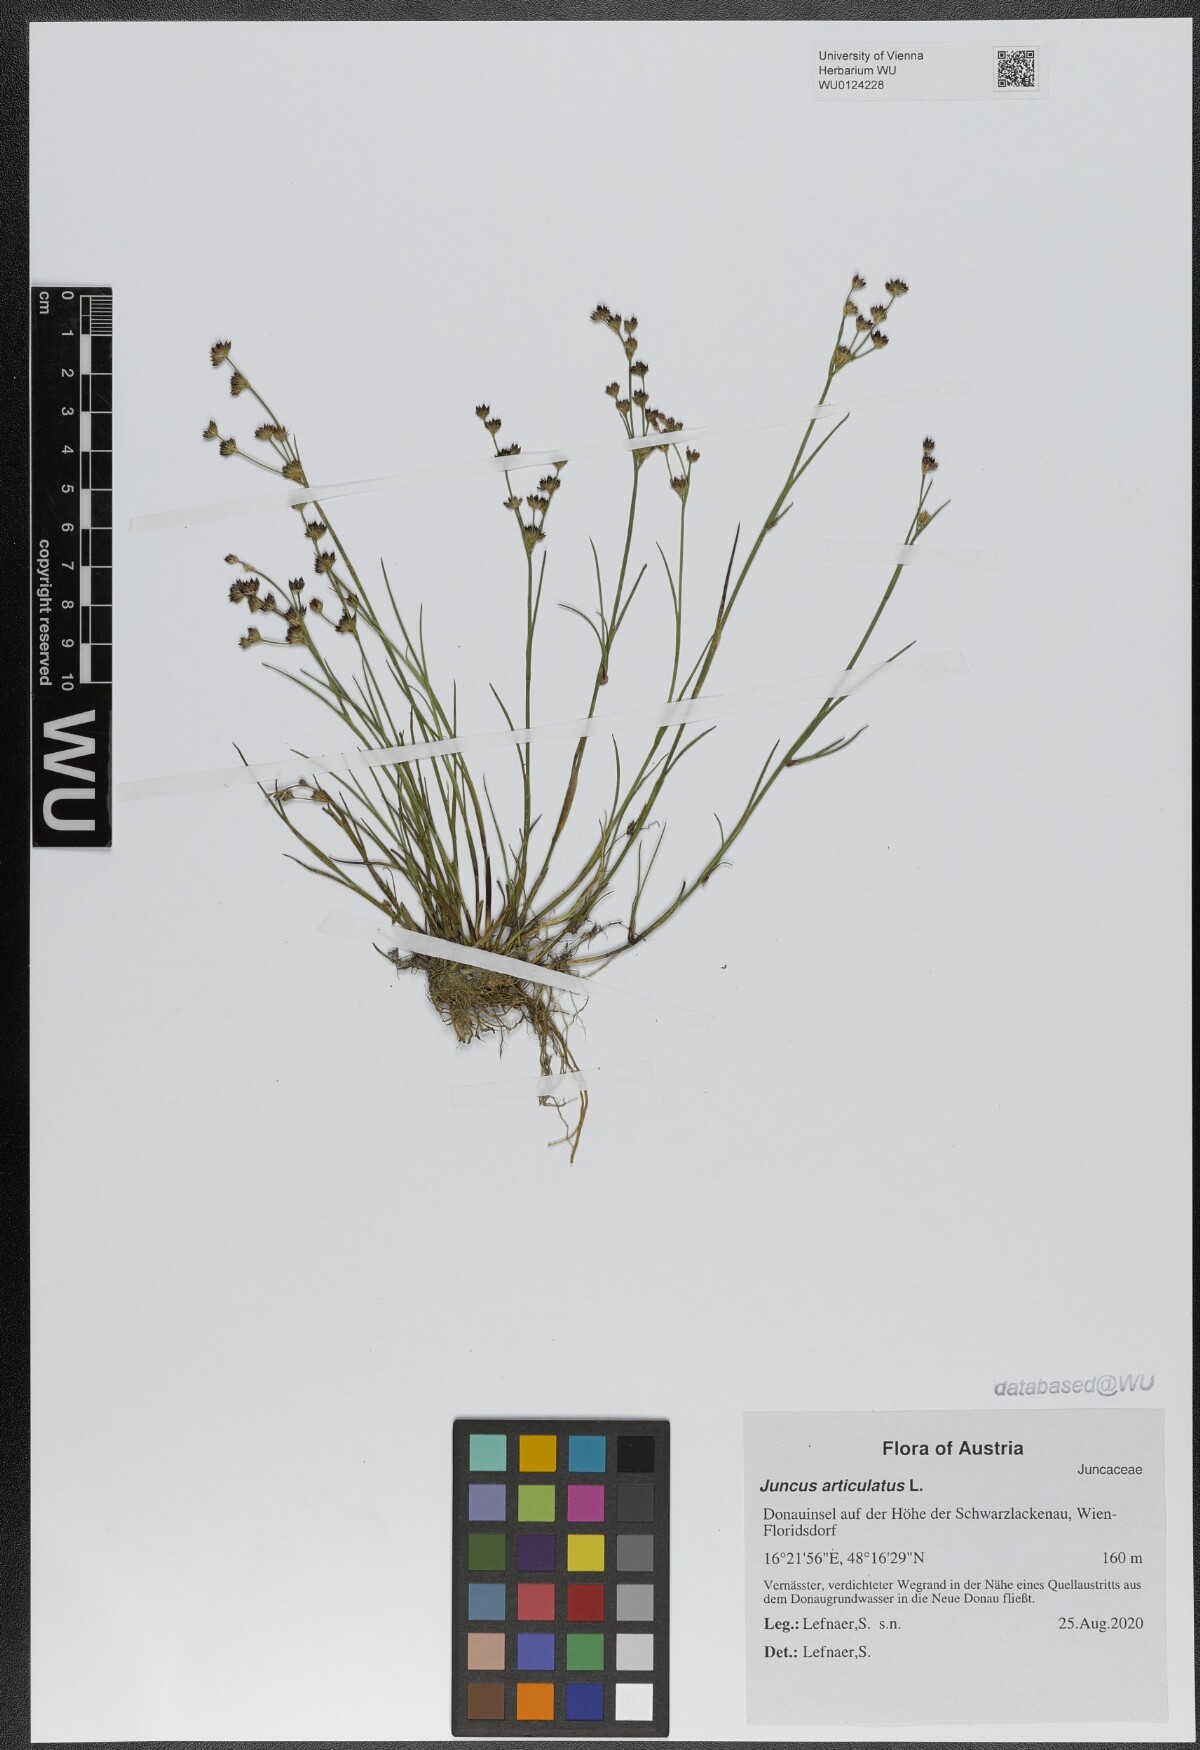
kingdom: Plantae
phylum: Tracheophyta
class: Liliopsida
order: Poales
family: Juncaceae
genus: Juncus
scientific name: Juncus articulatus
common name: Jointed rush
